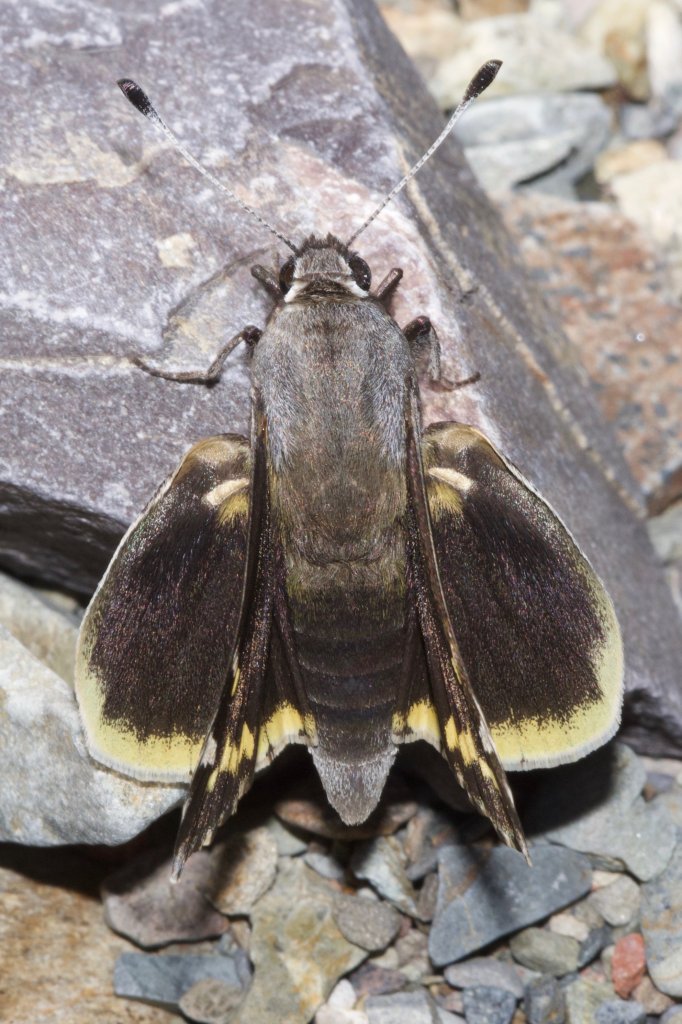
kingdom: Animalia
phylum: Arthropoda
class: Insecta
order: Lepidoptera
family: Hesperiidae
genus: Megathymus
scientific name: Megathymus yuccae
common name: Yucca Giant-Skipper
